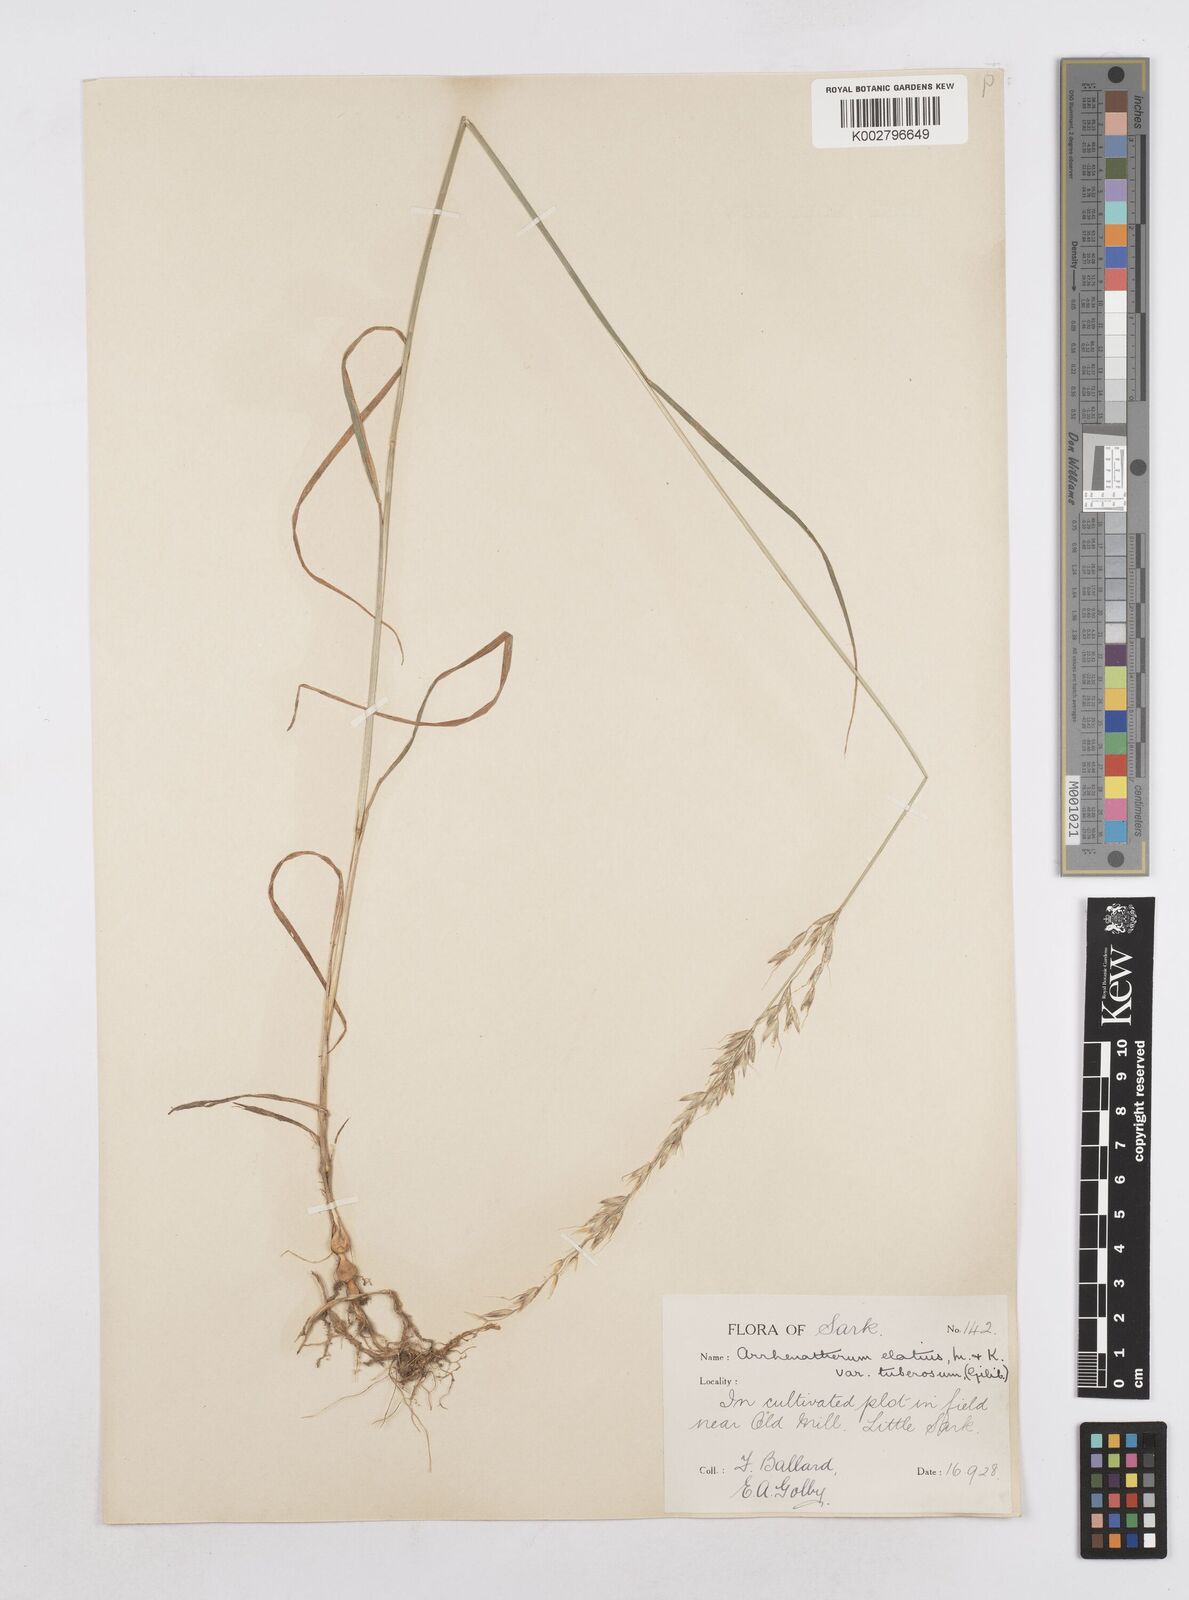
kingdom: Plantae
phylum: Tracheophyta
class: Liliopsida
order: Poales
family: Poaceae
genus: Arrhenatherum
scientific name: Arrhenatherum elatius
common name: Tall oatgrass
